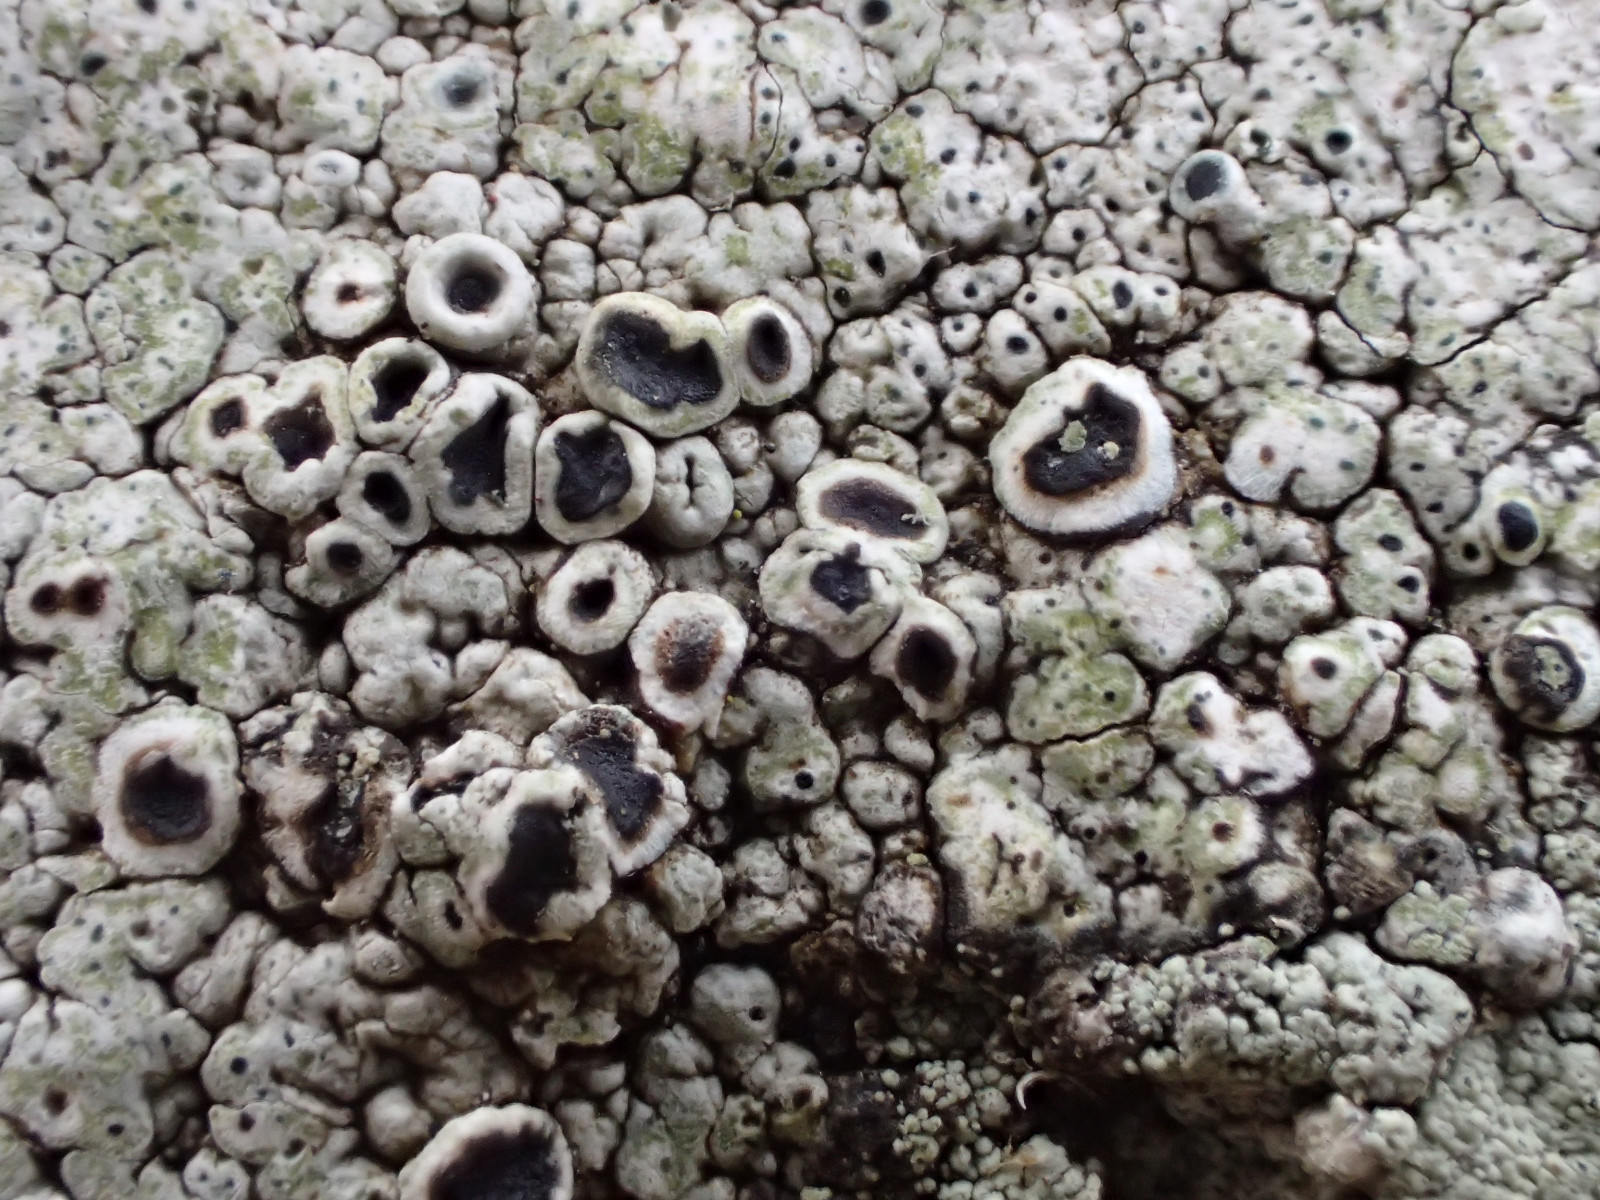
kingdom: Fungi
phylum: Ascomycota
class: Lecanoromycetes
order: Lecanorales
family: Tephromelataceae
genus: Tephromela
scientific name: Tephromela atra
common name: sortfrugtet kantskivelav
